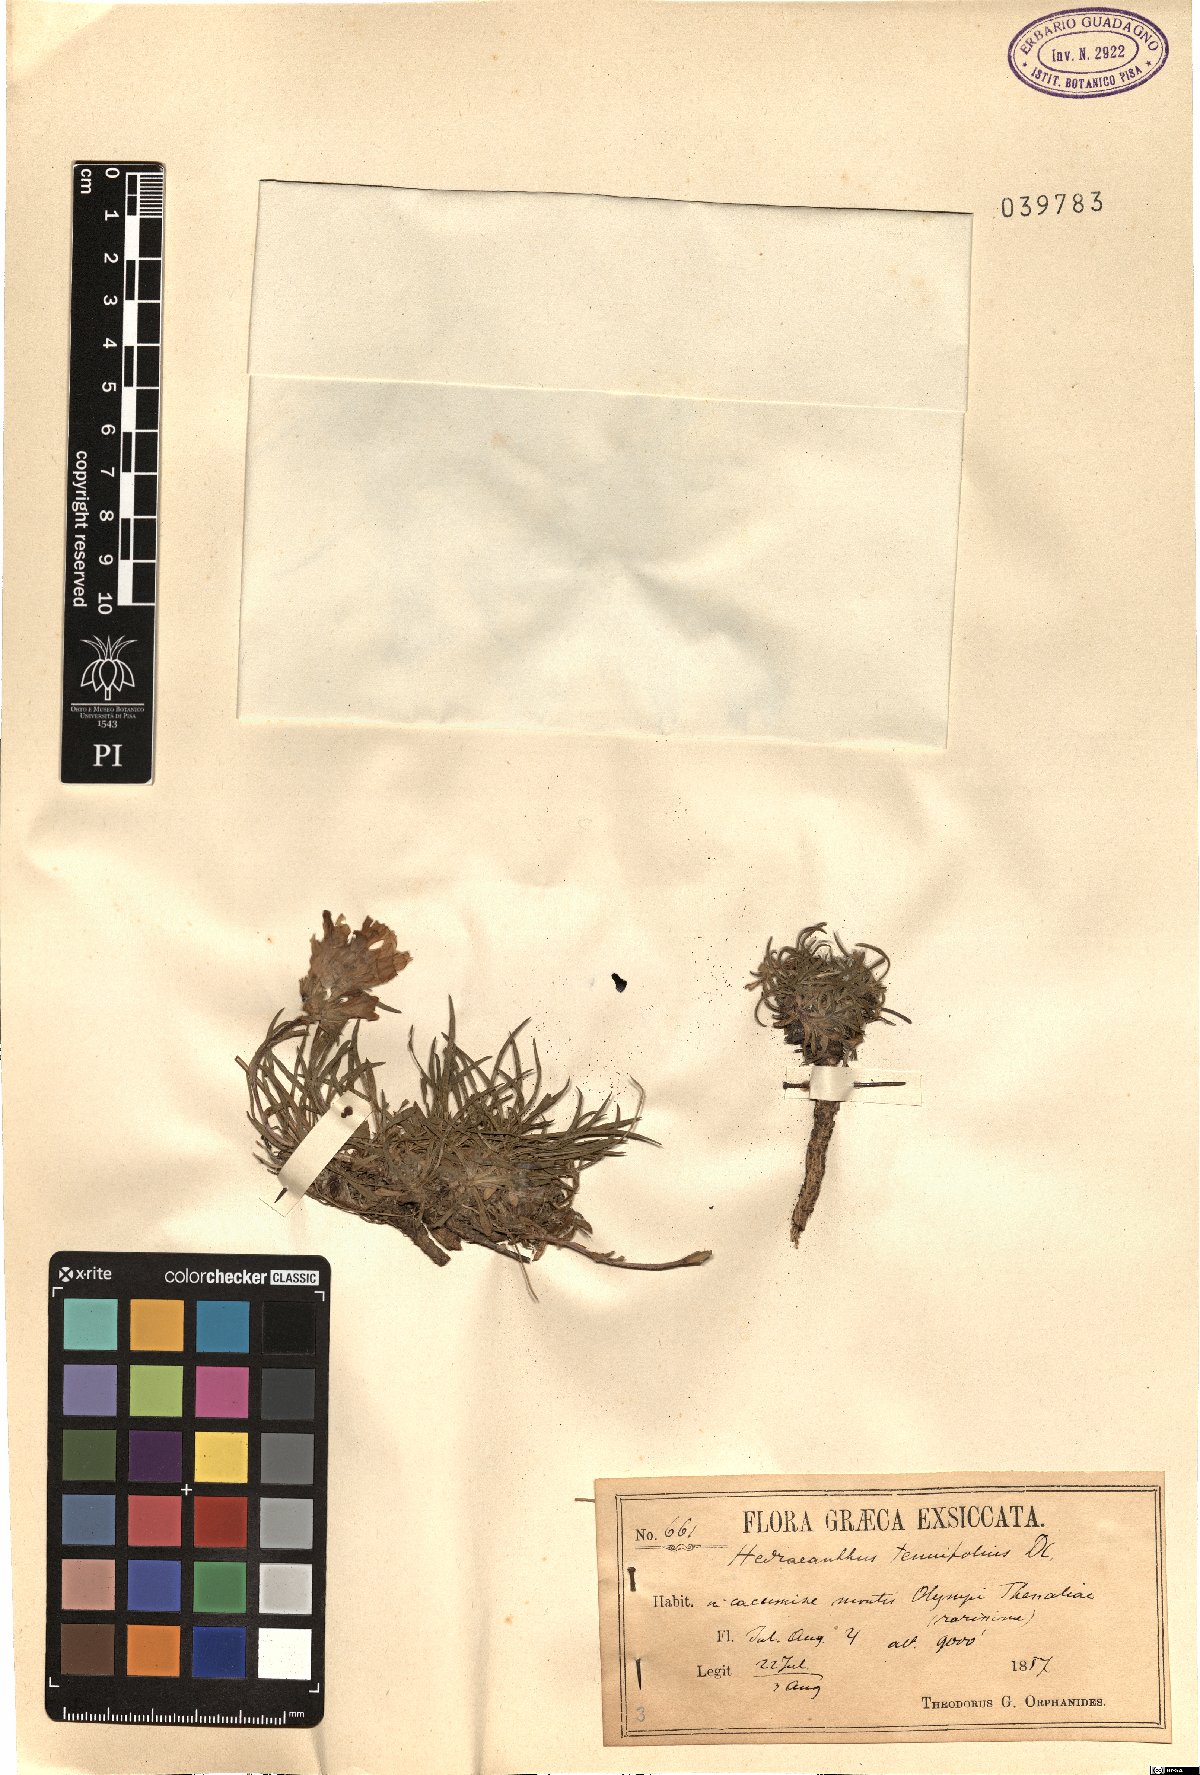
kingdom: Plantae
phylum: Tracheophyta
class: Magnoliopsida
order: Asterales
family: Campanulaceae
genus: Edraianthus
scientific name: Edraianthus tenuifolius
